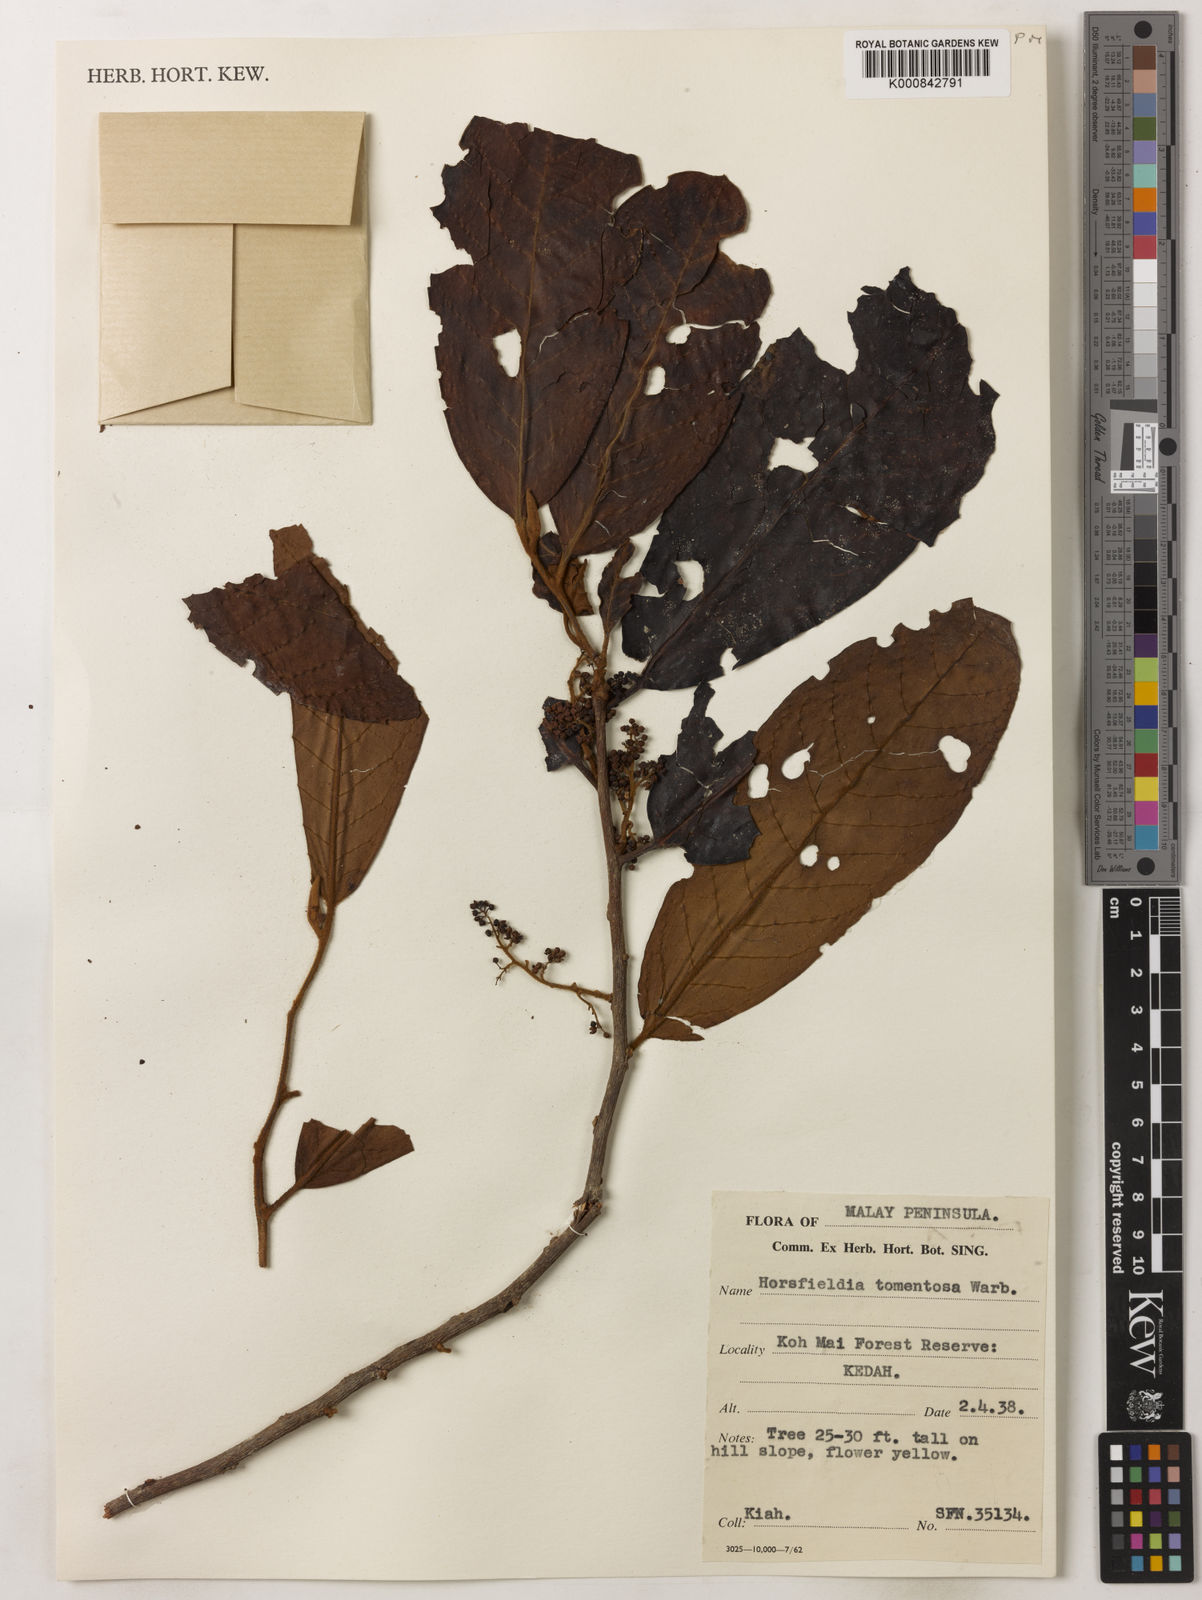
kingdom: Plantae
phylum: Tracheophyta
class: Magnoliopsida
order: Magnoliales
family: Myristicaceae
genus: Horsfieldia
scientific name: Horsfieldia tomentosa
